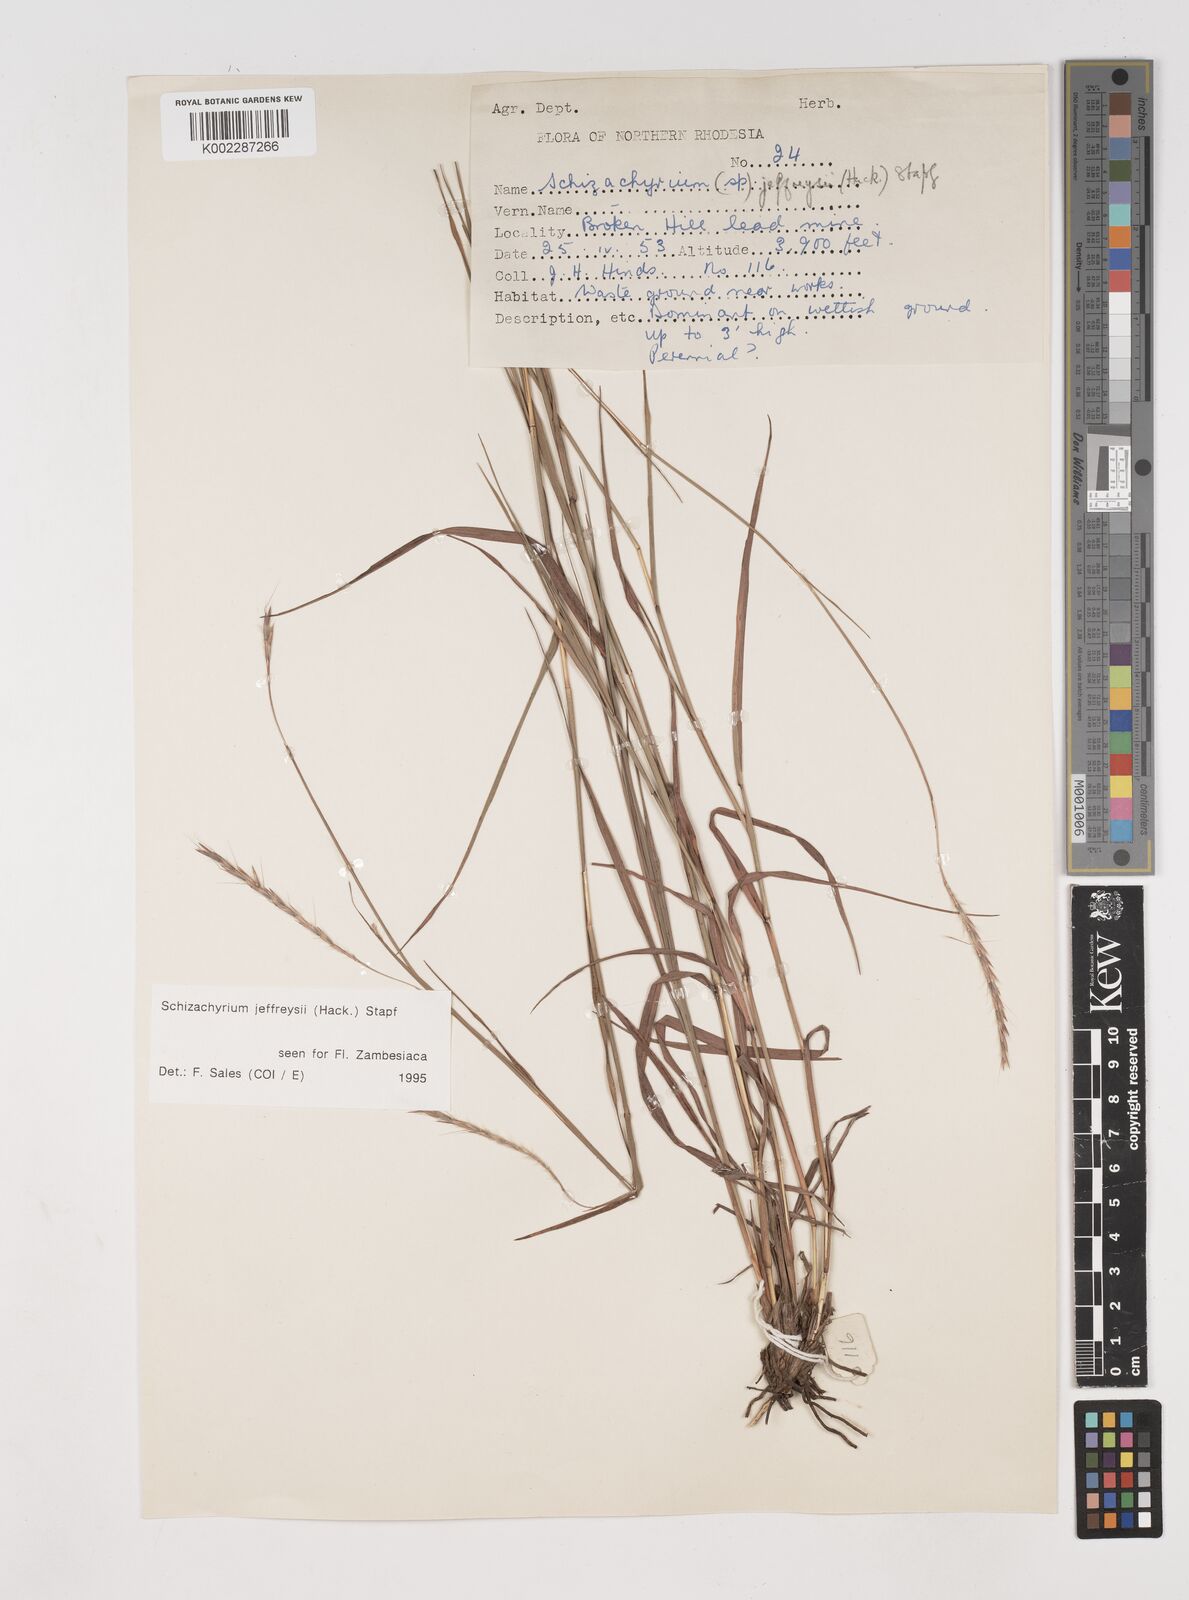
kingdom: Plantae
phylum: Tracheophyta
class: Liliopsida
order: Poales
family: Poaceae
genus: Schizachyrium
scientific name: Schizachyrium jeffreysii
